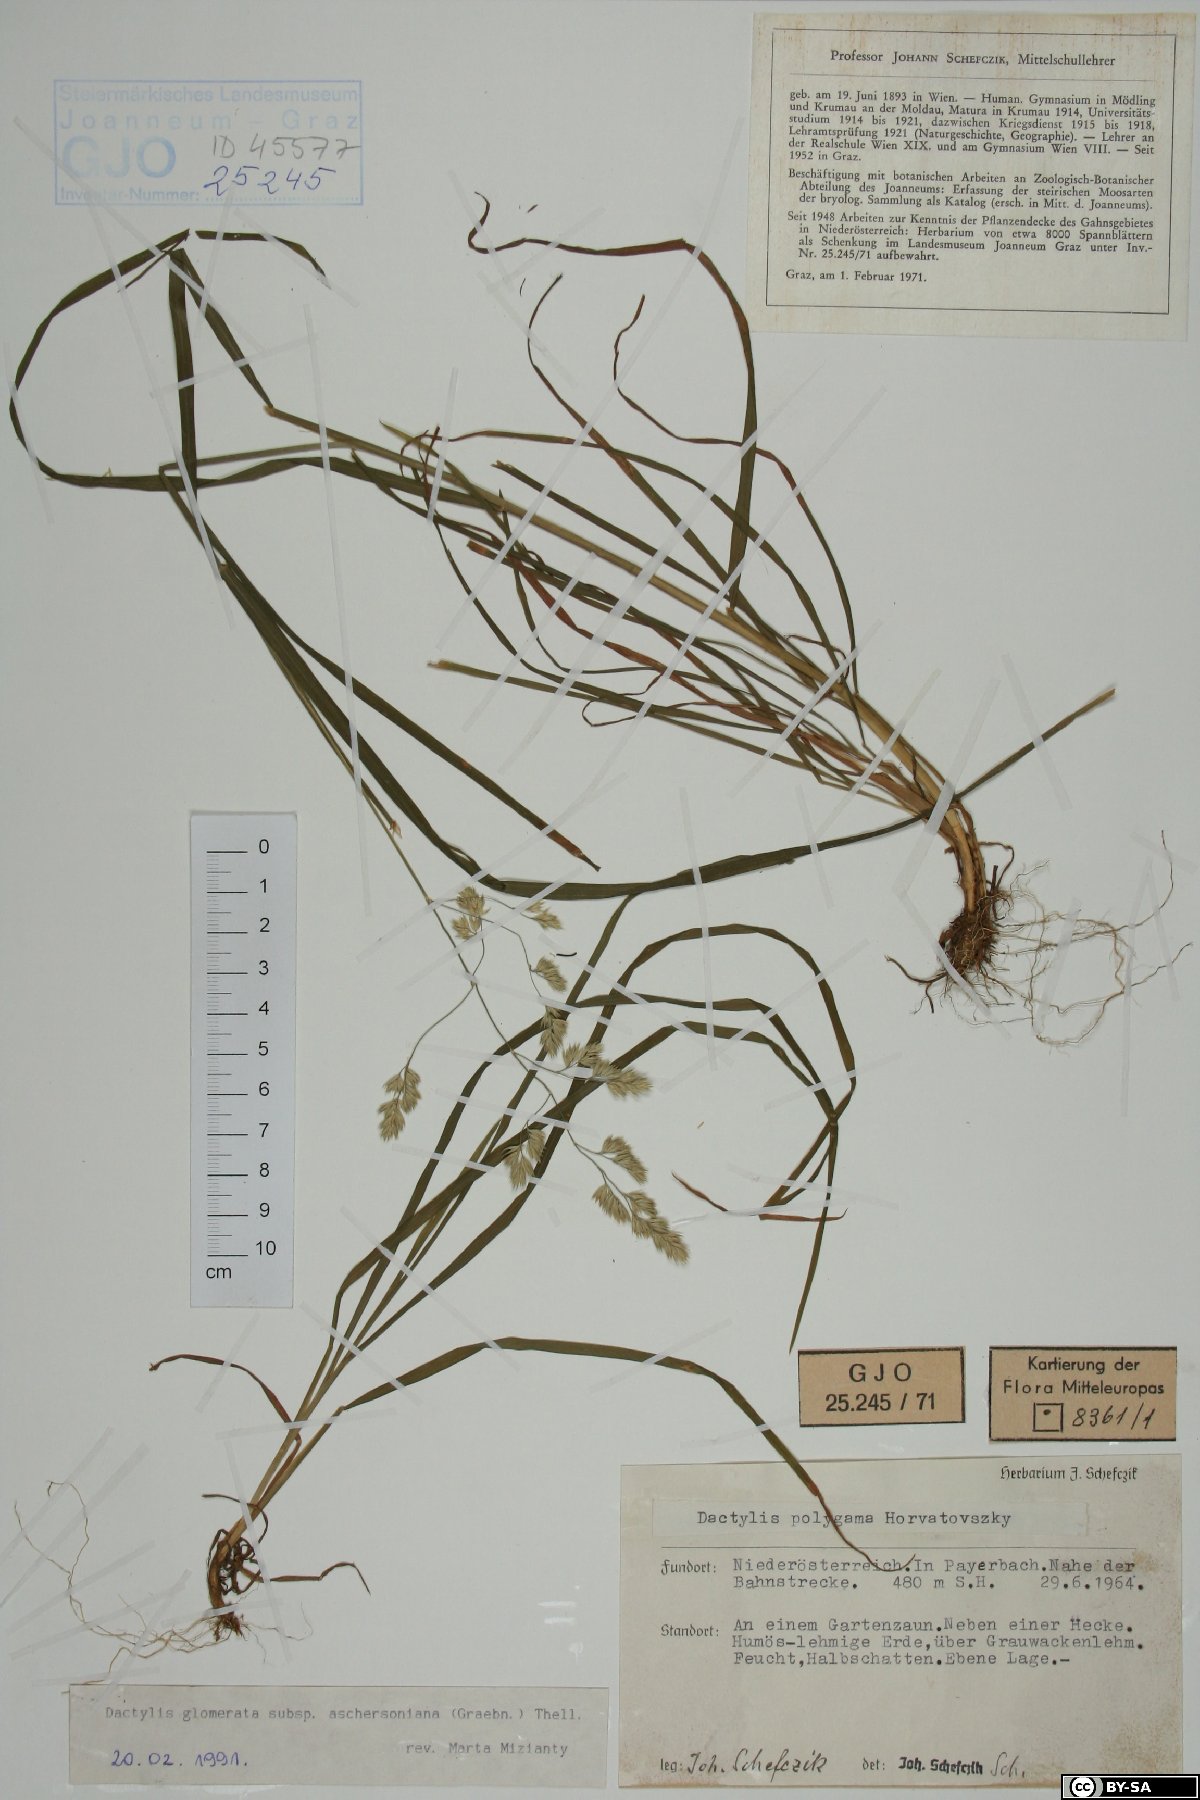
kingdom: Plantae
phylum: Tracheophyta
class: Liliopsida
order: Poales
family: Poaceae
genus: Dactylis
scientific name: Dactylis glomerata
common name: Orchardgrass
